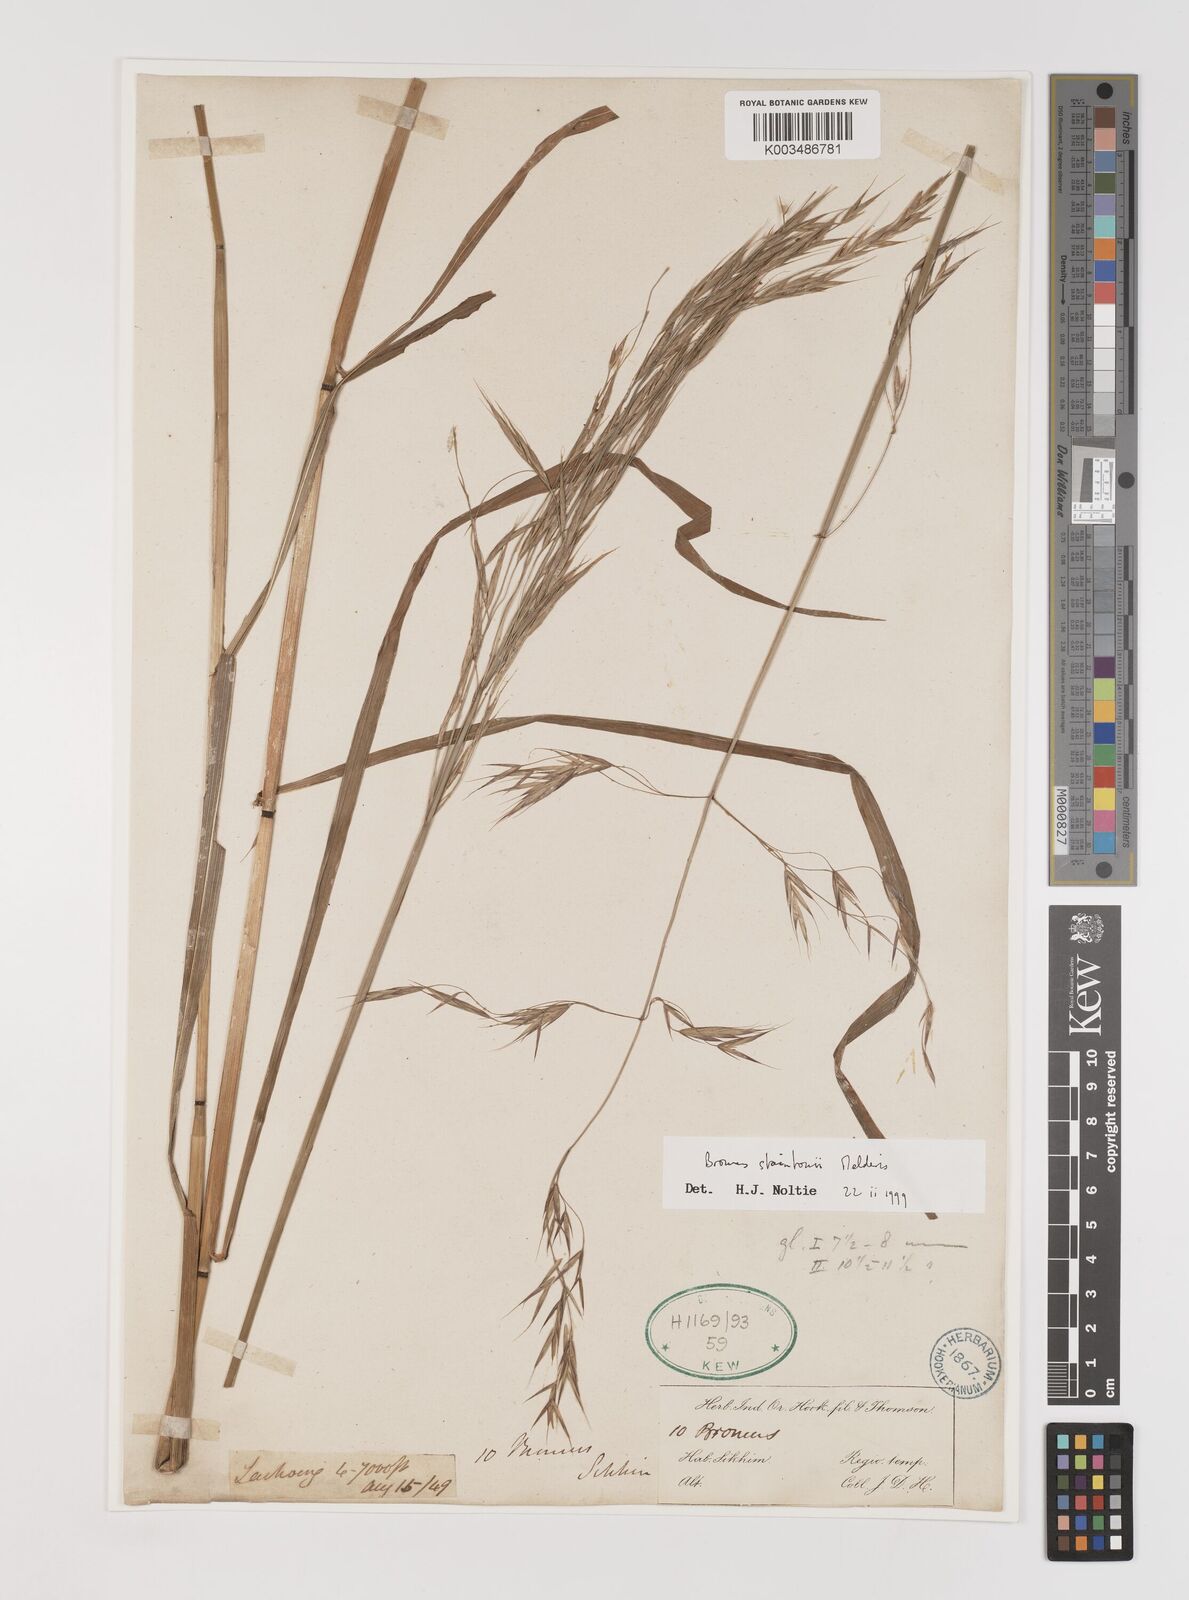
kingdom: Plantae
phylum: Tracheophyta
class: Liliopsida
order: Poales
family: Poaceae
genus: Bromus
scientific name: Bromus staintonii
